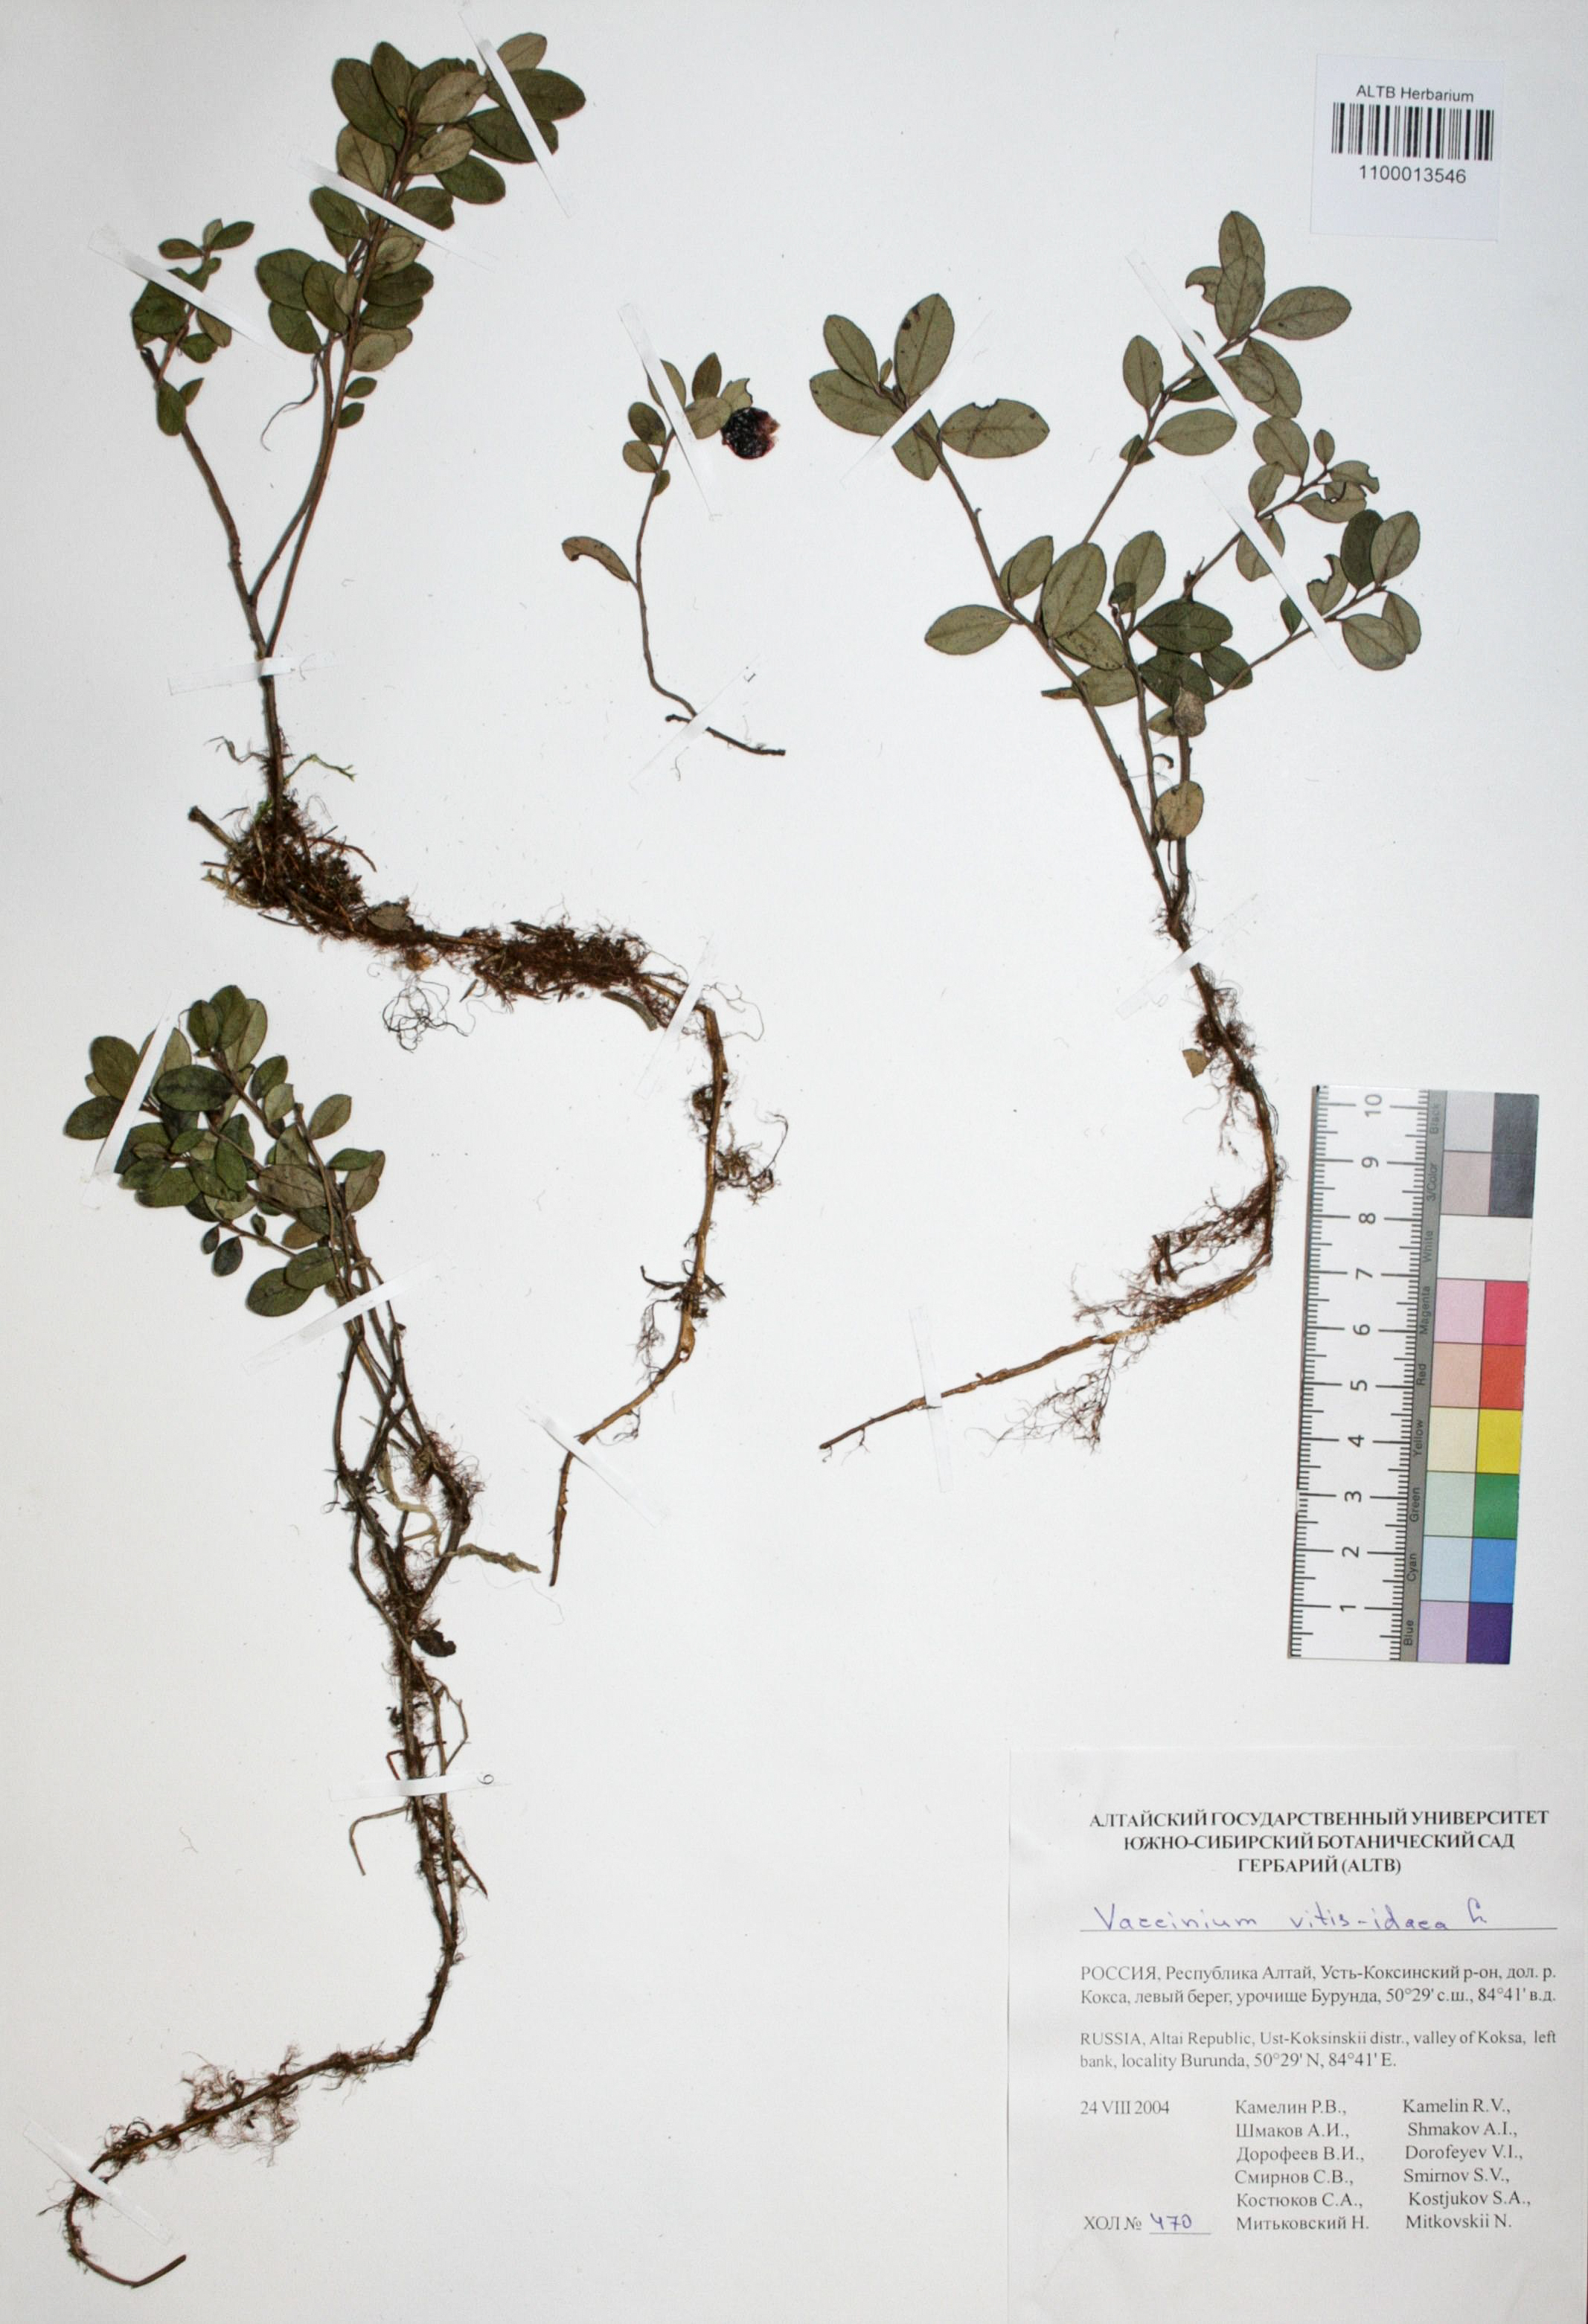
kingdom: Plantae
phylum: Tracheophyta
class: Magnoliopsida
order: Ericales
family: Ericaceae
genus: Vaccinium
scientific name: Vaccinium vitis-idaea
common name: Cowberry
